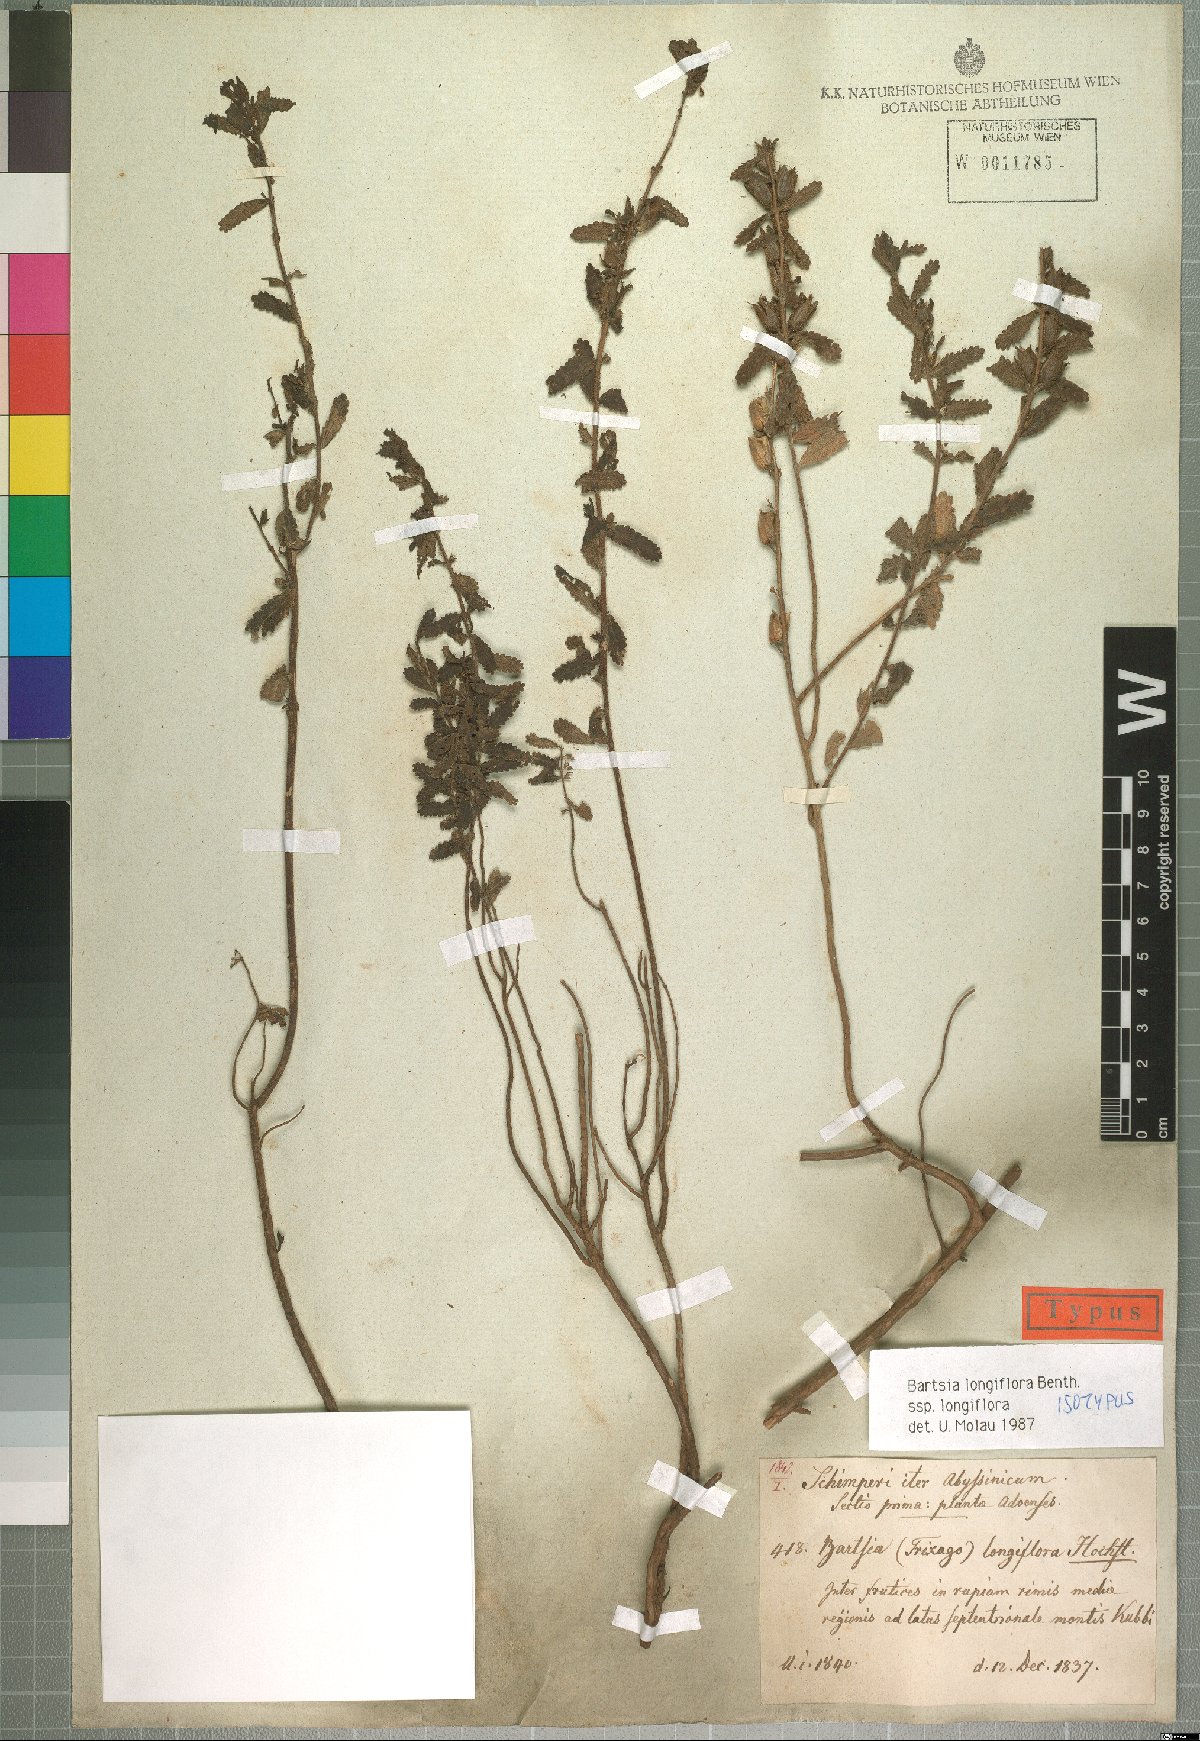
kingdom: Plantae
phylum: Tracheophyta
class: Magnoliopsida
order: Lamiales
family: Orobanchaceae
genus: Hedbergia
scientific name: Hedbergia longiflora
